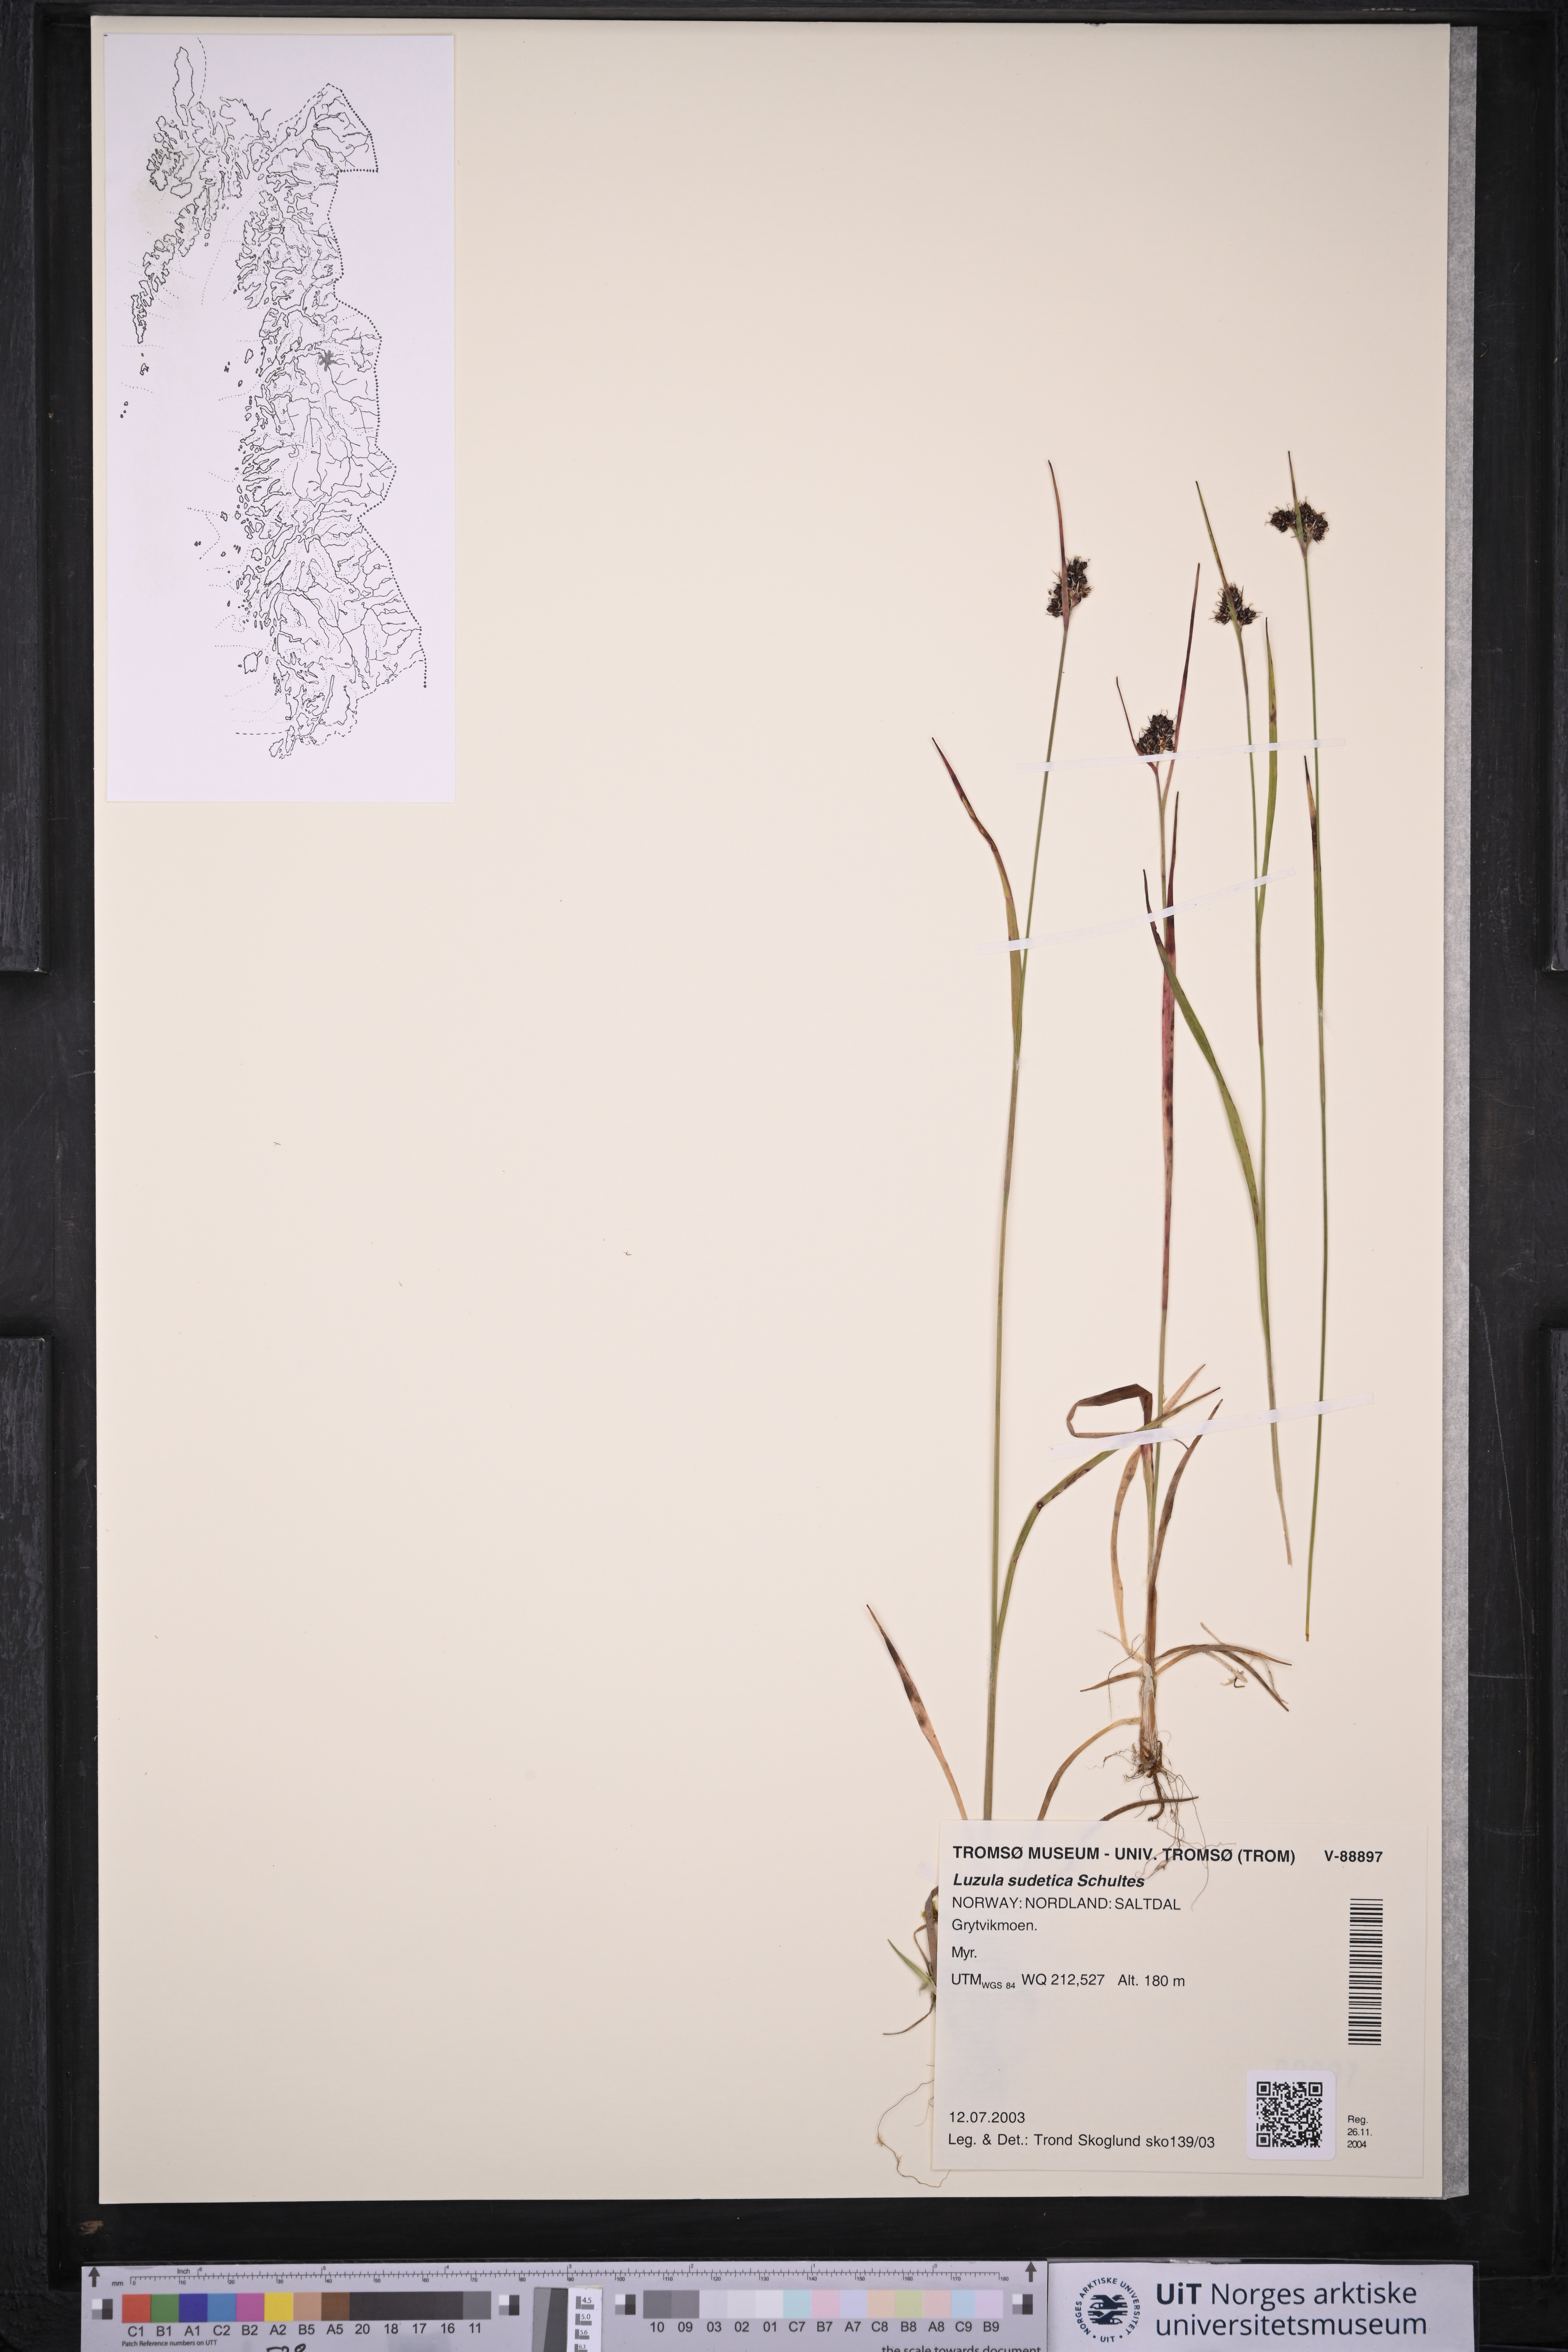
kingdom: Plantae
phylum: Tracheophyta
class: Liliopsida
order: Poales
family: Juncaceae
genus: Luzula
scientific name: Luzula sudetica
